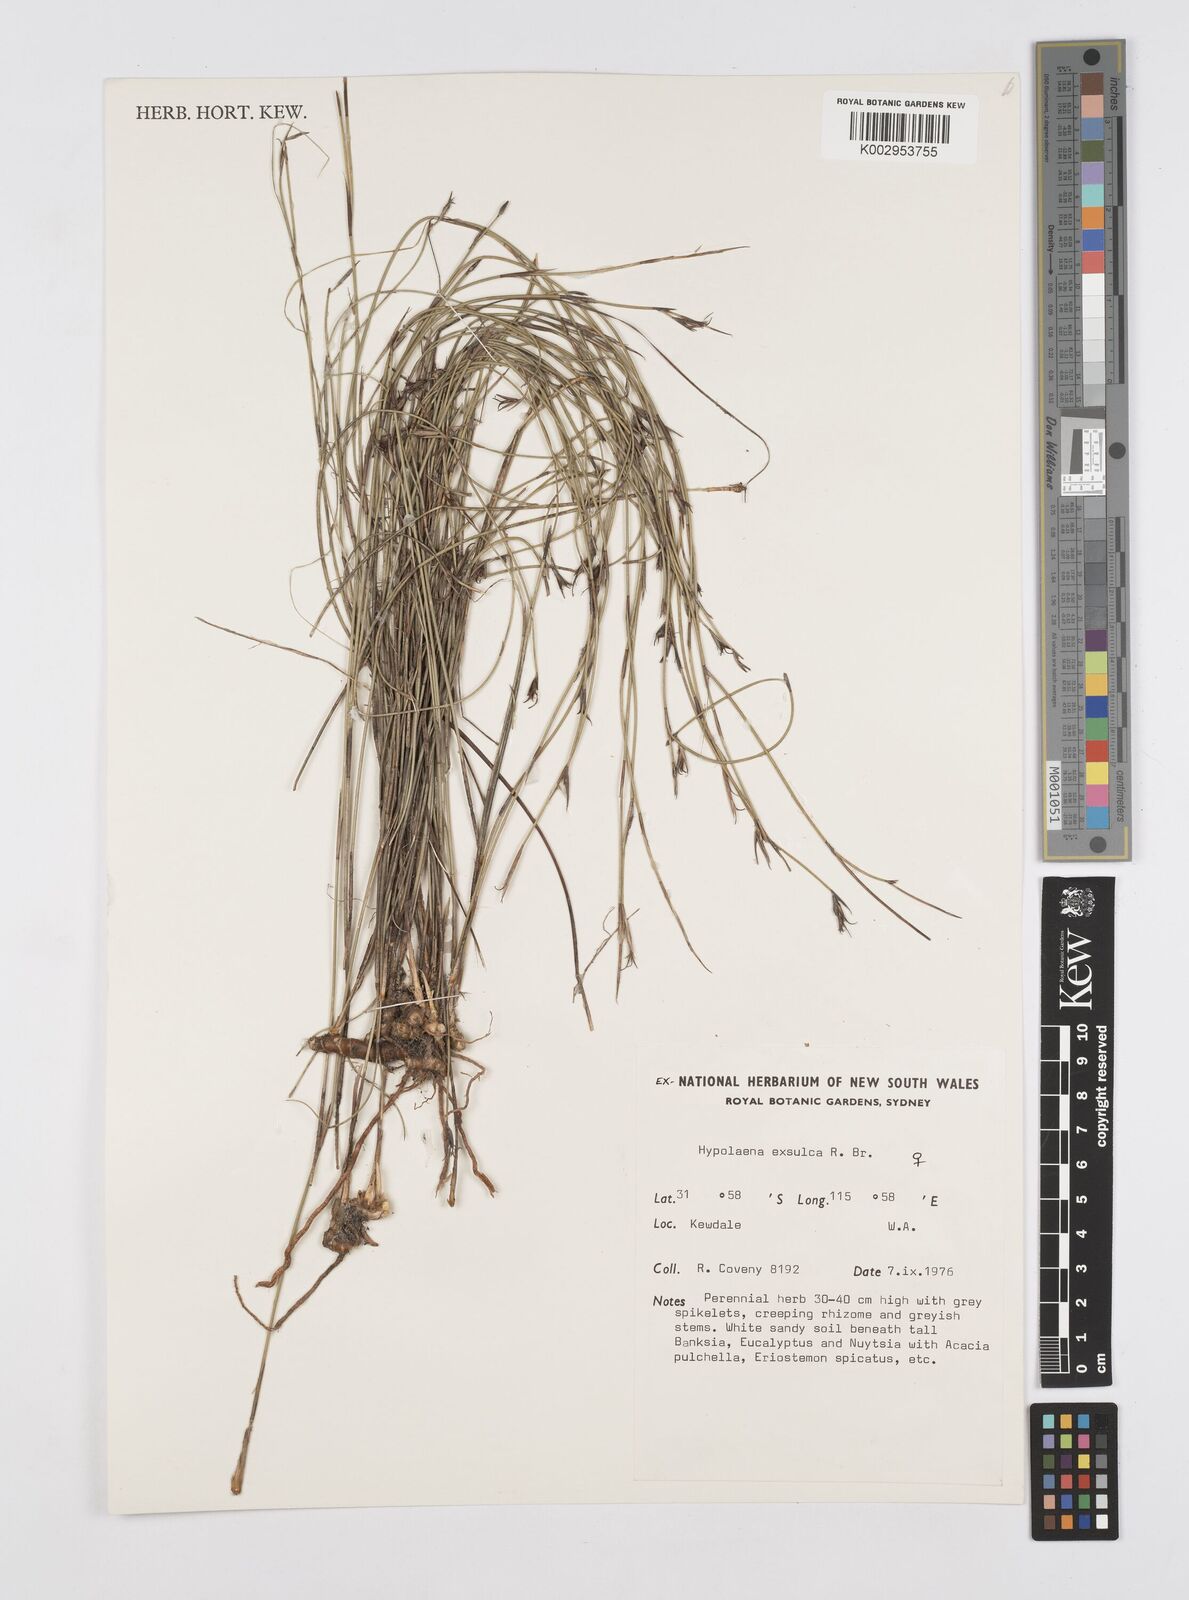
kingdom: Plantae
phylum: Tracheophyta
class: Liliopsida
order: Poales
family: Restionaceae
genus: Hypolaena
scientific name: Hypolaena exsulca
